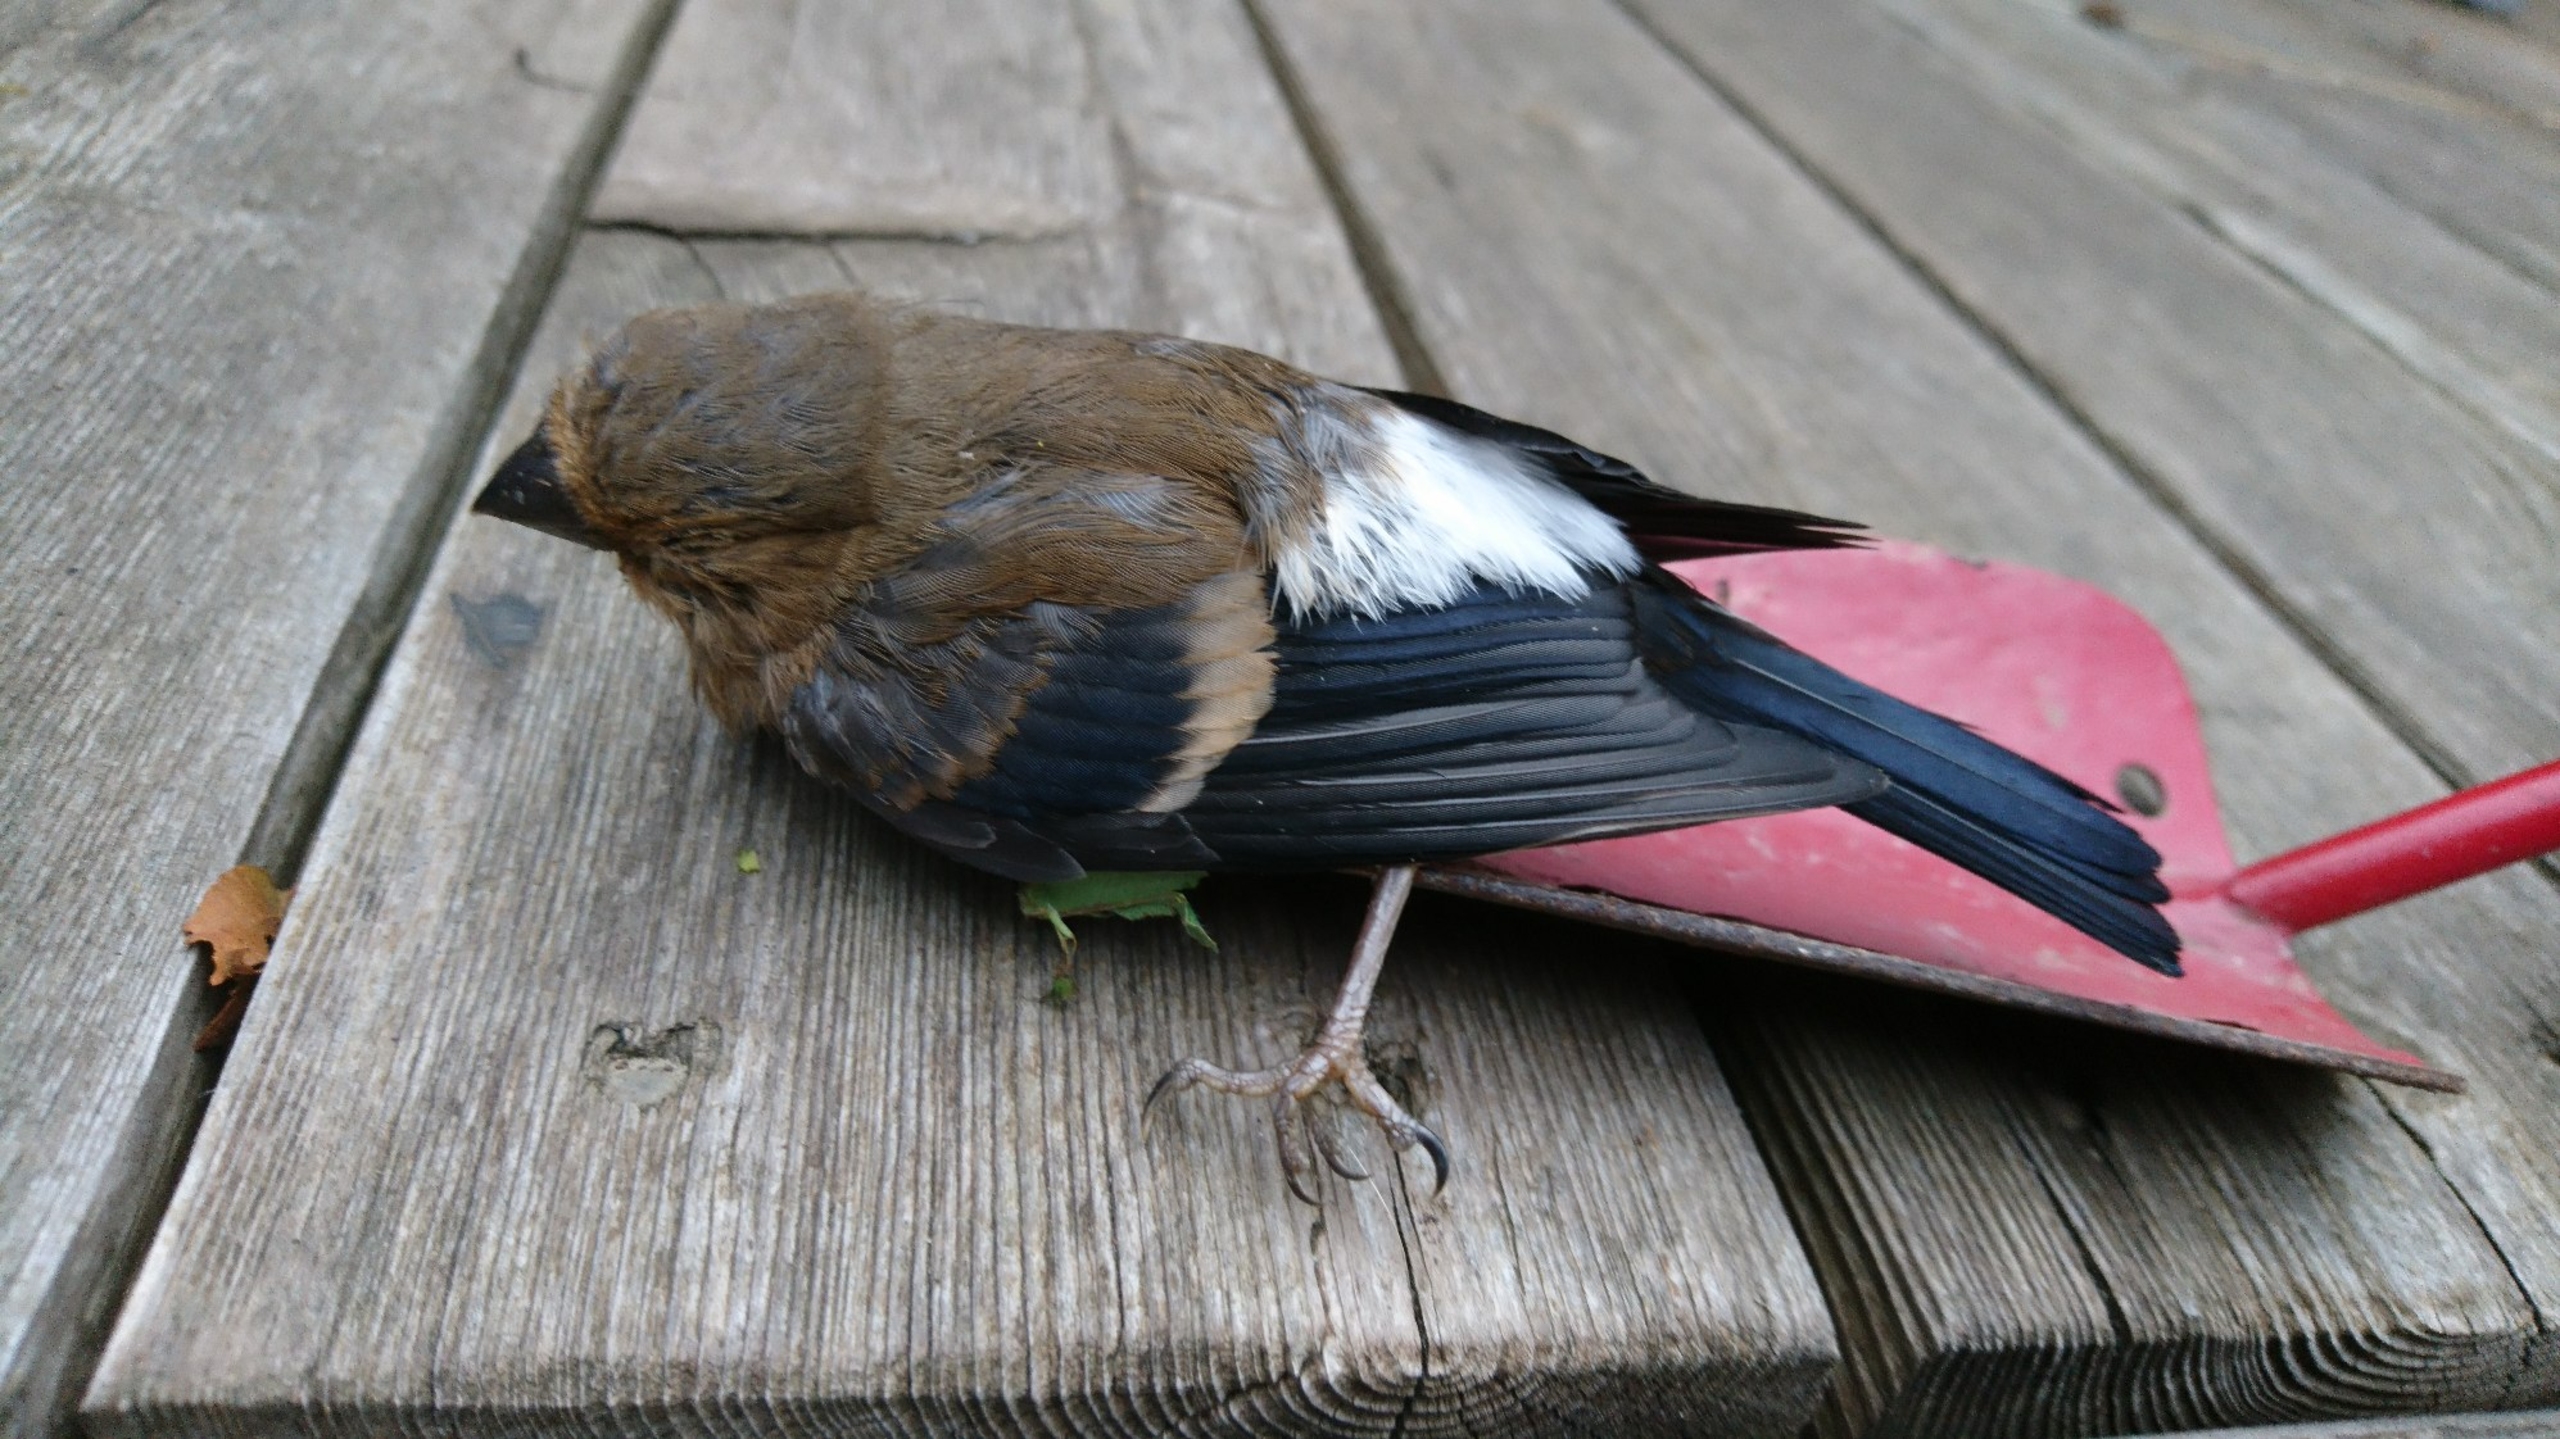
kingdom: Animalia
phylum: Chordata
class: Aves
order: Passeriformes
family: Fringillidae
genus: Pyrrhula
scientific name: Pyrrhula pyrrhula
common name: Dompap
